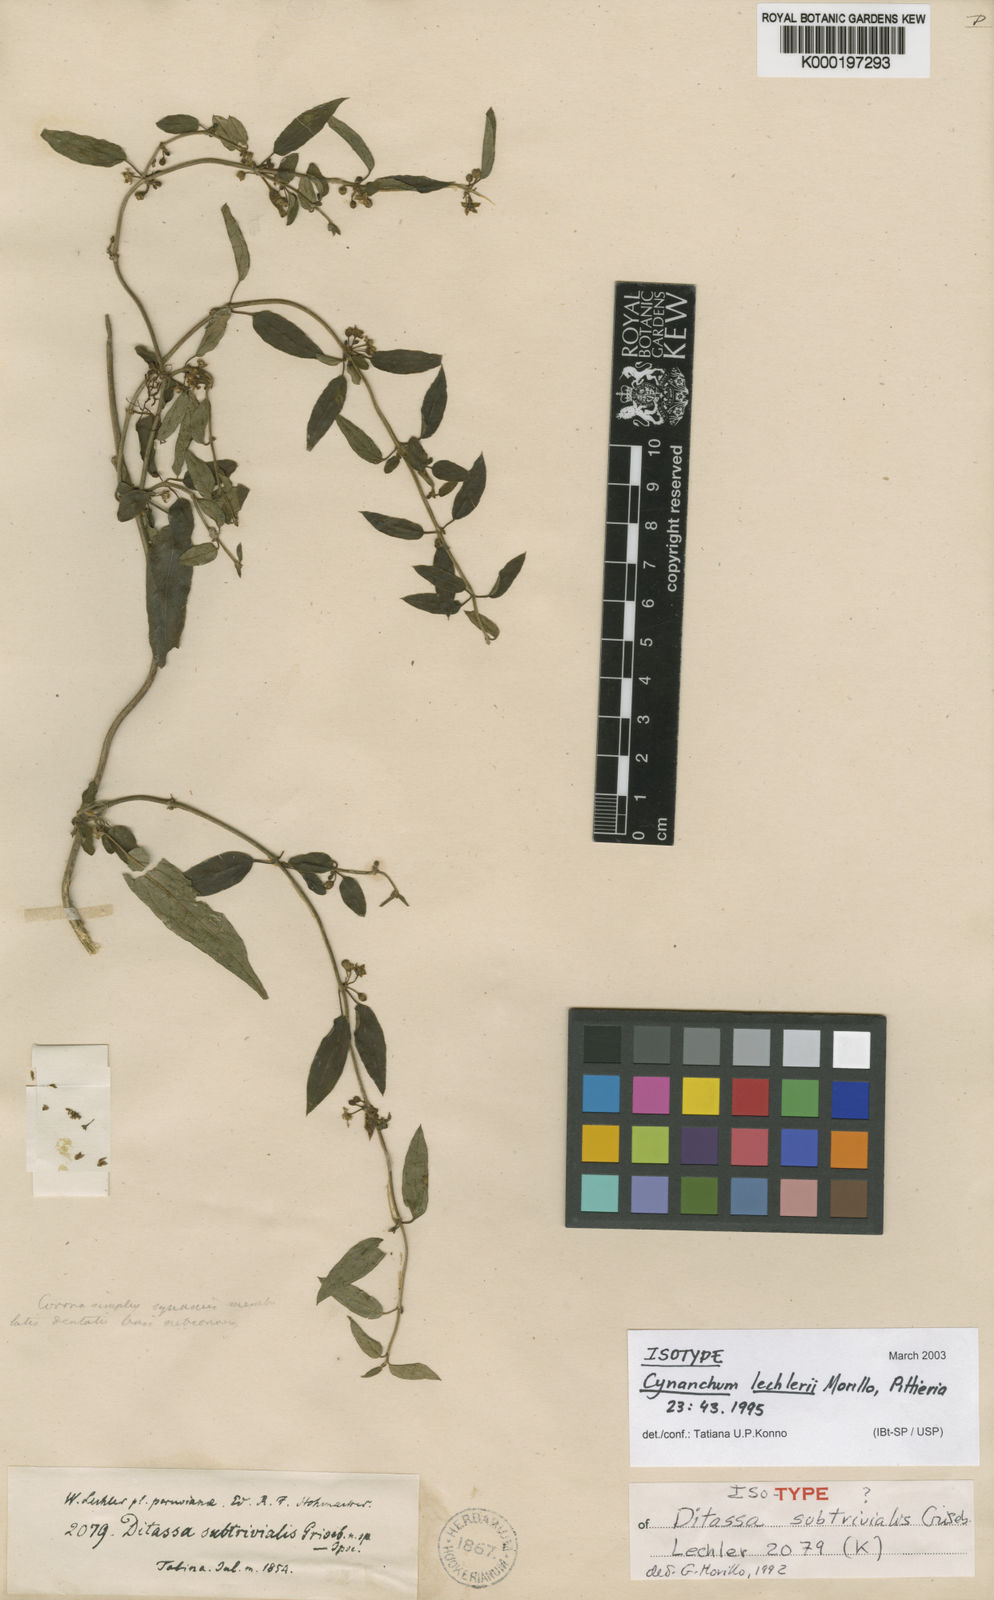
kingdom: Plantae
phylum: Tracheophyta
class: Magnoliopsida
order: Gentianales
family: Apocynaceae
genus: Scyphostelma
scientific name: Scyphostelma lechleri
